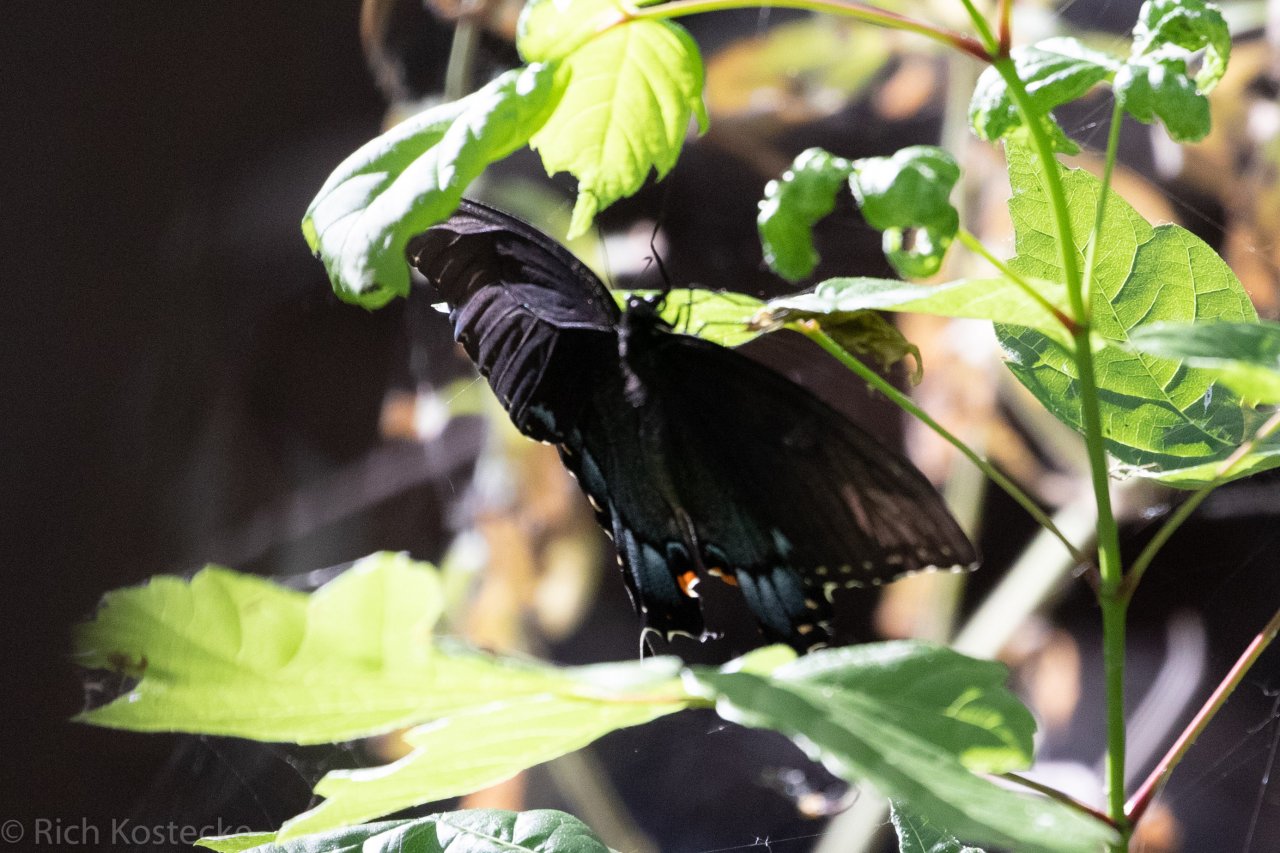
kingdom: Animalia
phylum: Arthropoda
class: Insecta
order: Lepidoptera
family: Papilionidae
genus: Pterourus
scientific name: Pterourus glaucus
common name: Eastern Tiger Swallowtail
